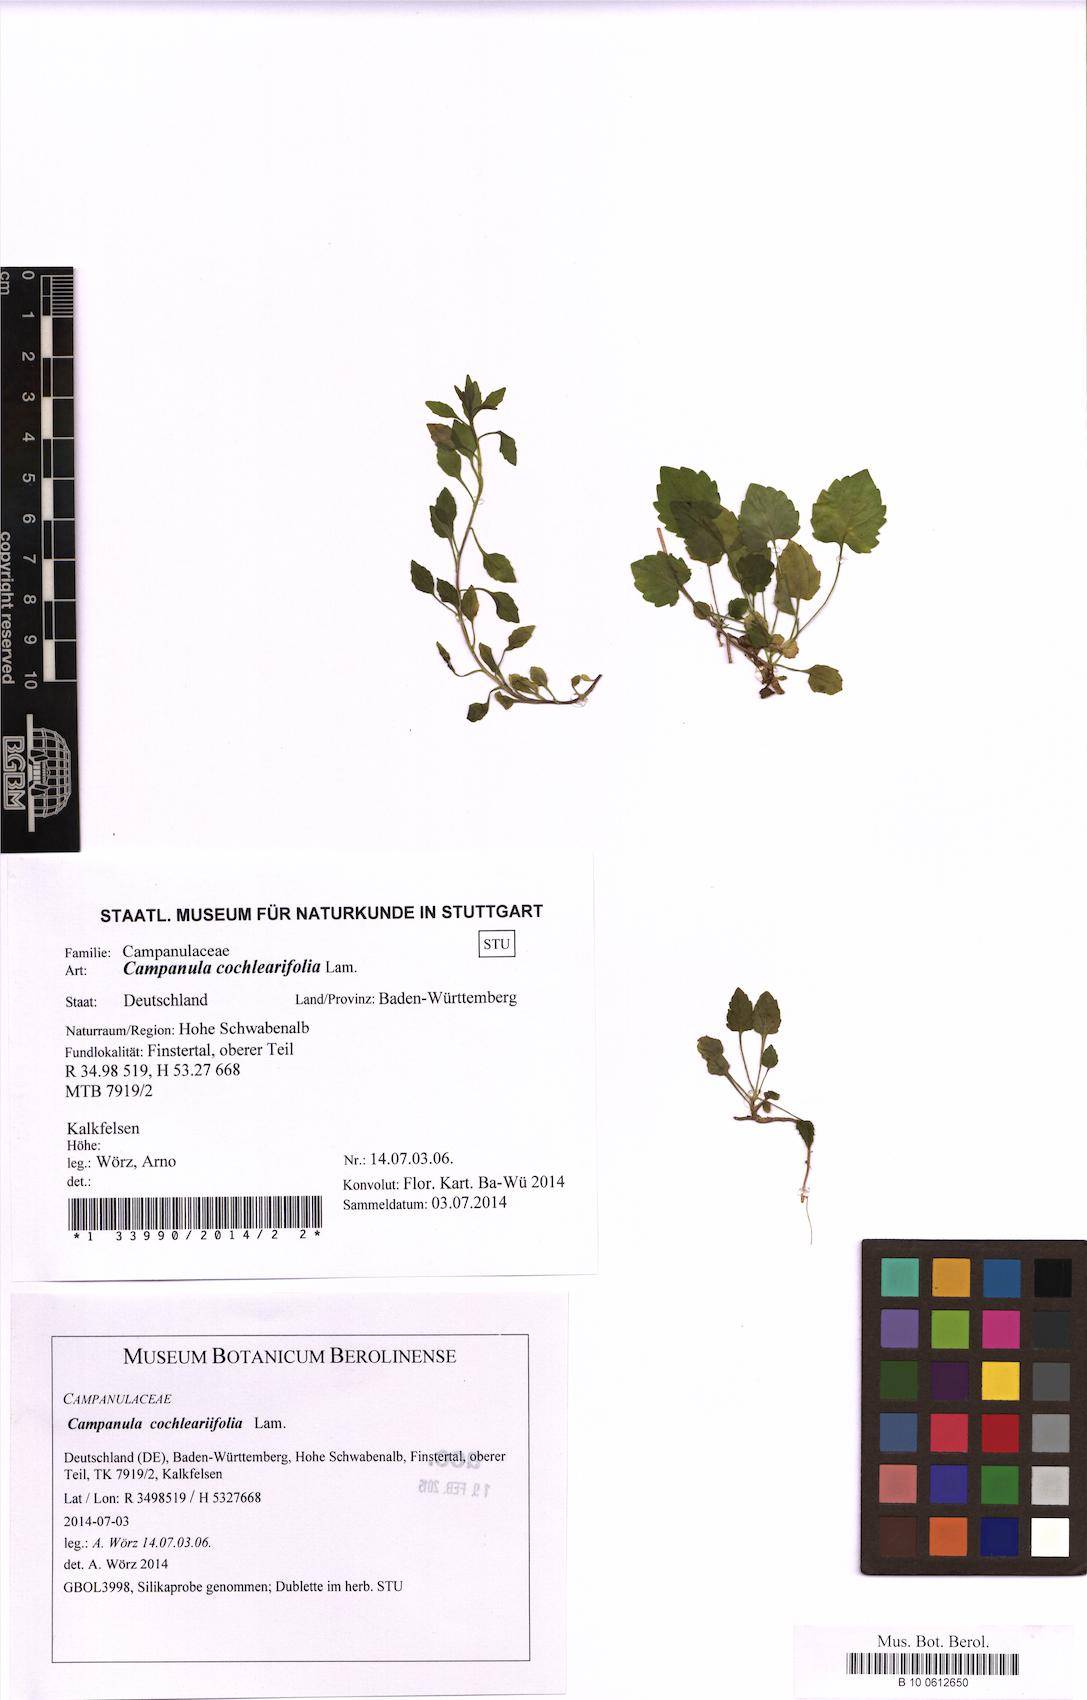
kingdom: Plantae
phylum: Tracheophyta
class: Magnoliopsida
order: Asterales
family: Campanulaceae
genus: Campanula
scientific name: Campanula cochleariifolia
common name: Fairies'-thimbles
